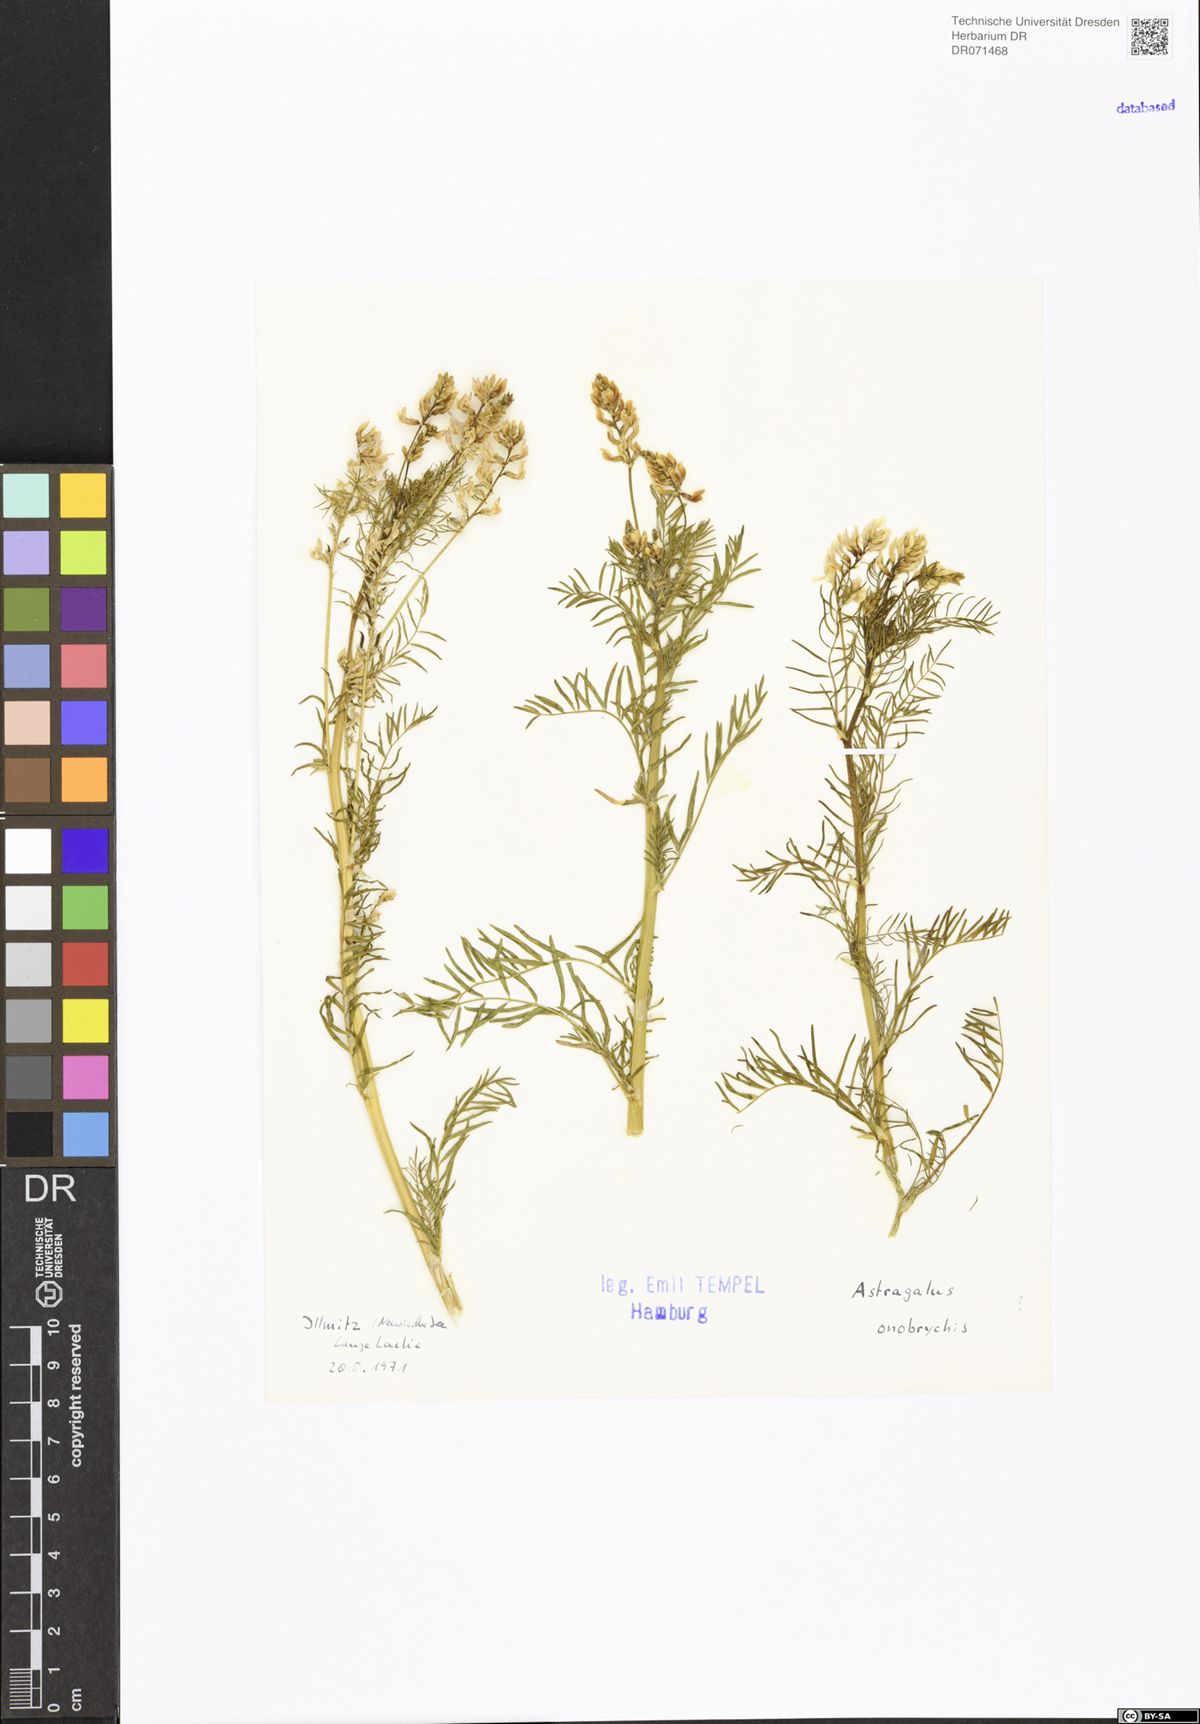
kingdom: Plantae
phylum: Tracheophyta
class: Magnoliopsida
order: Fabales
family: Fabaceae
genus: Astragalus
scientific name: Astragalus onobrychis
